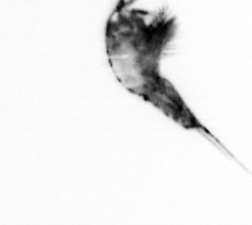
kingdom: Animalia
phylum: Arthropoda
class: Copepoda
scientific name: Copepoda
